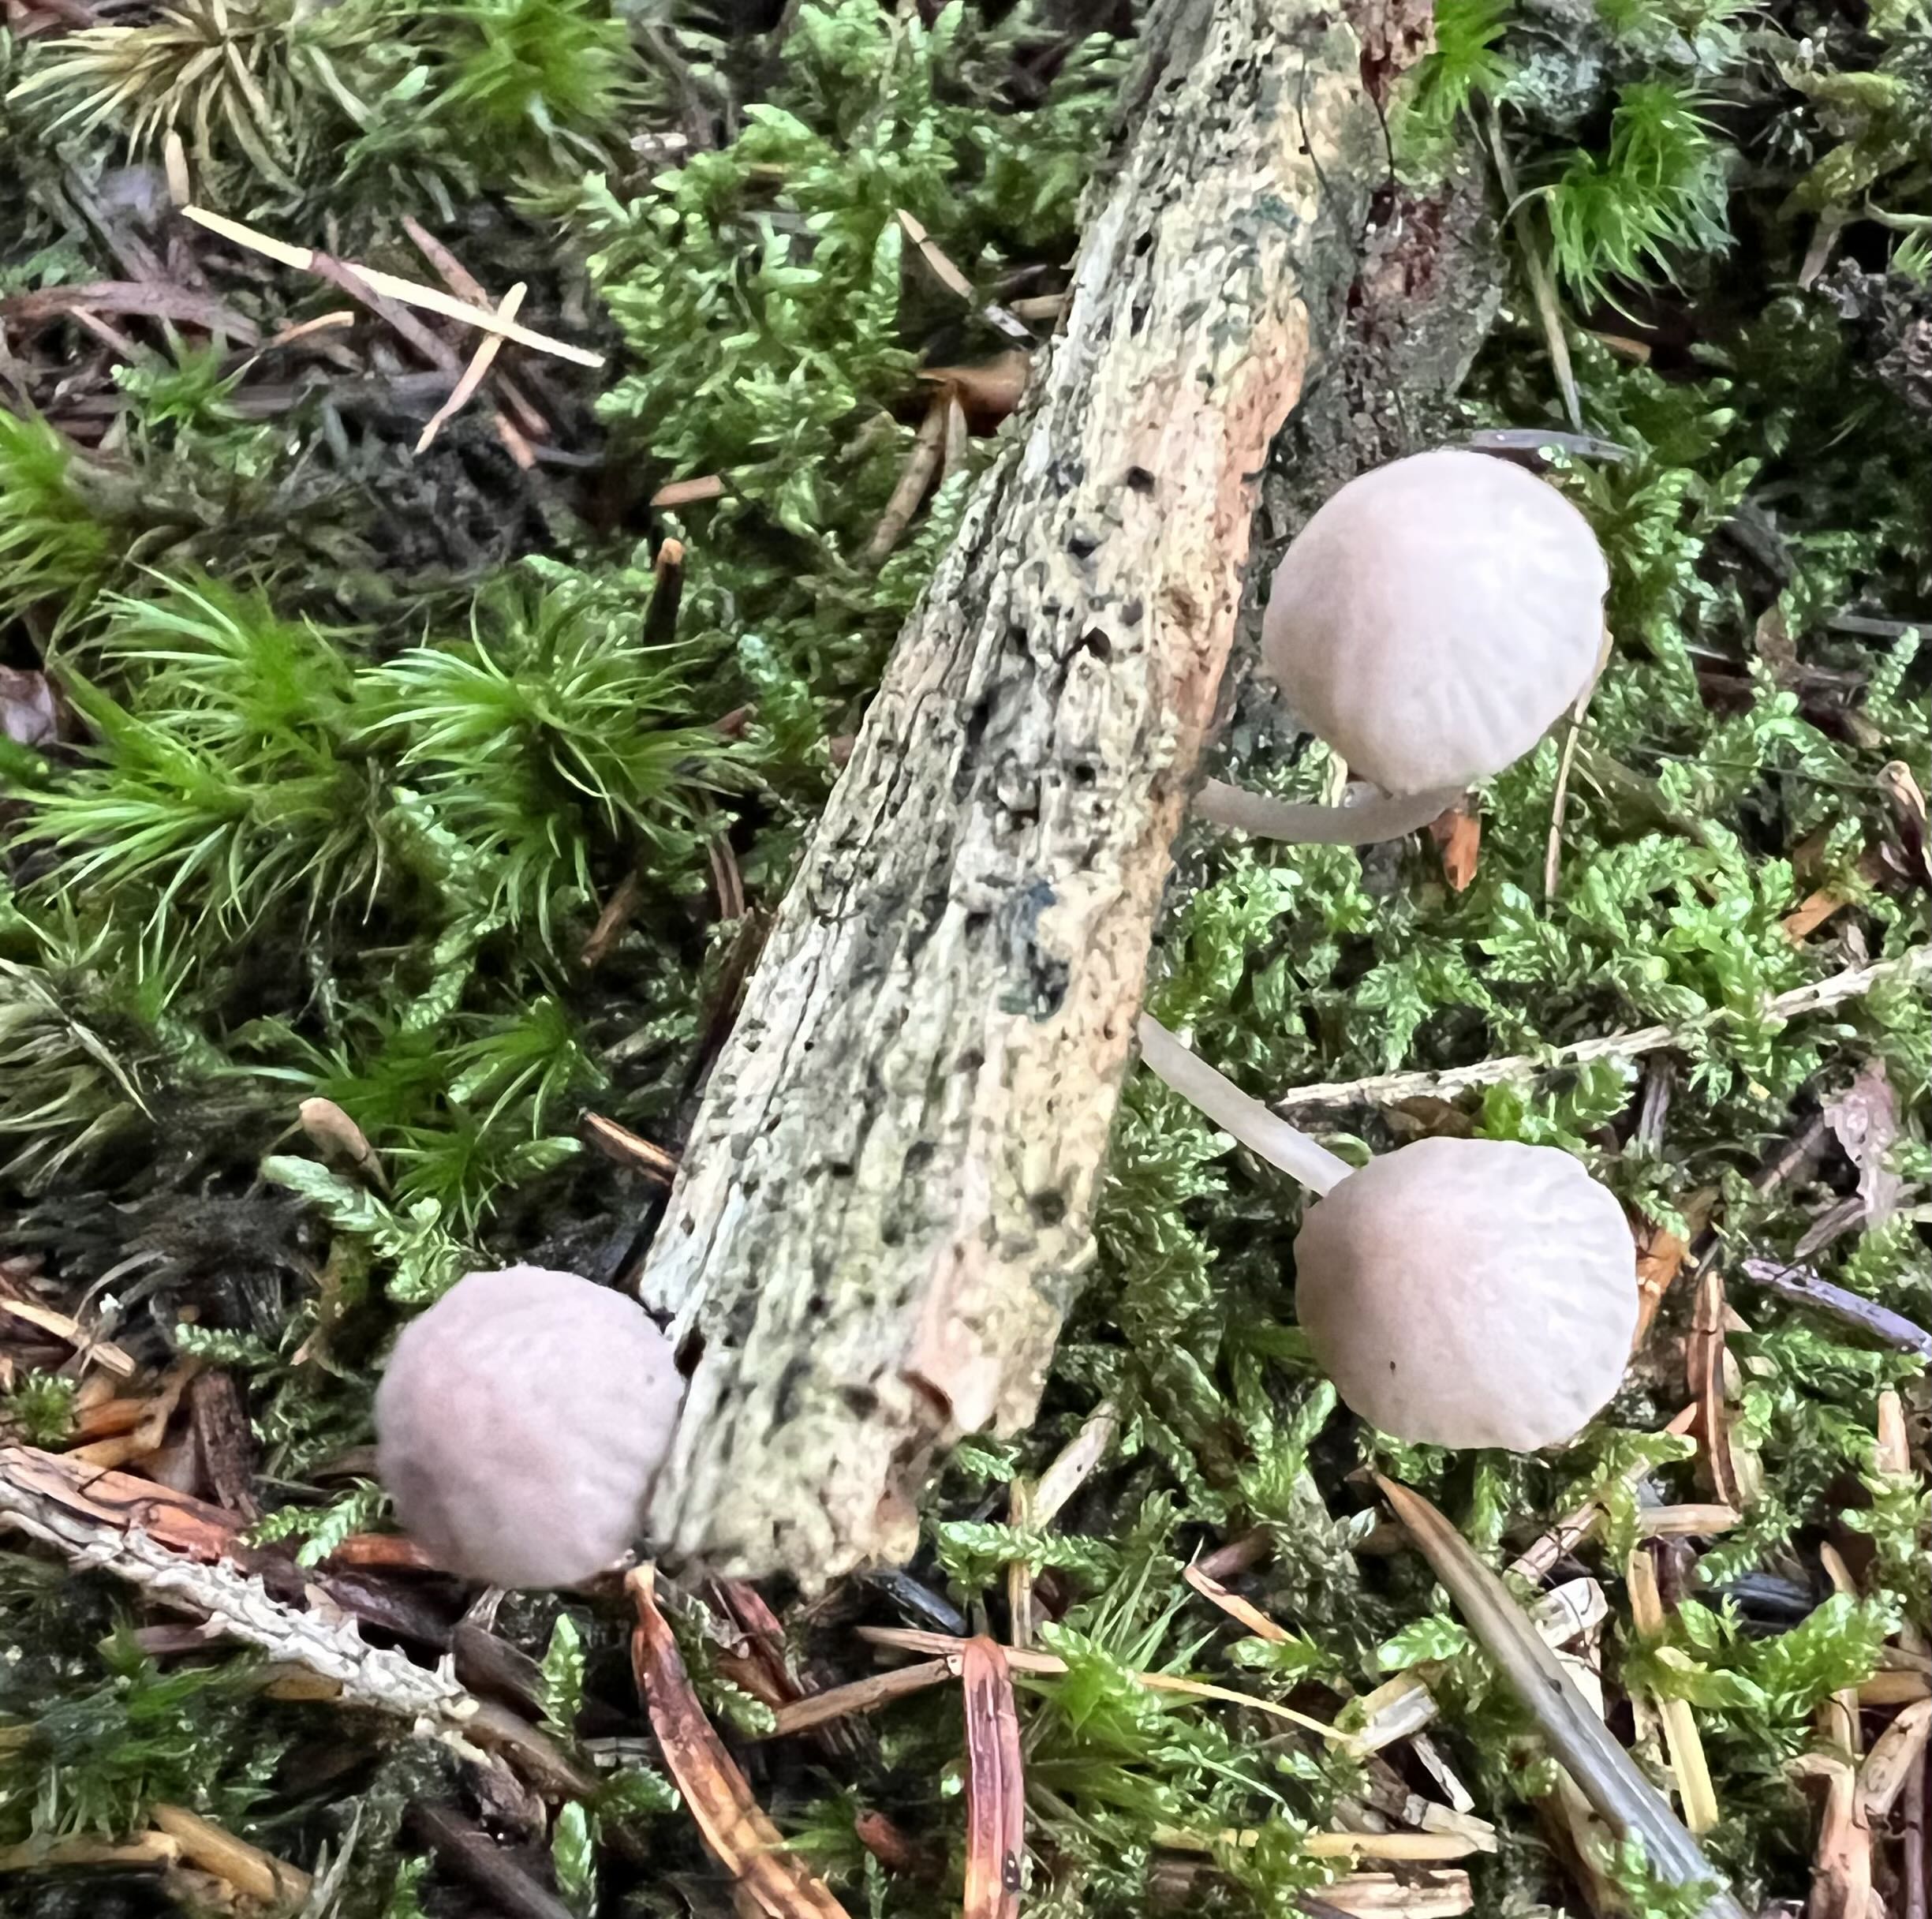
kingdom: Fungi
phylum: Basidiomycota
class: Agaricomycetes
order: Agaricales
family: Mycenaceae
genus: Mycena
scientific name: Mycena rubromarginata
